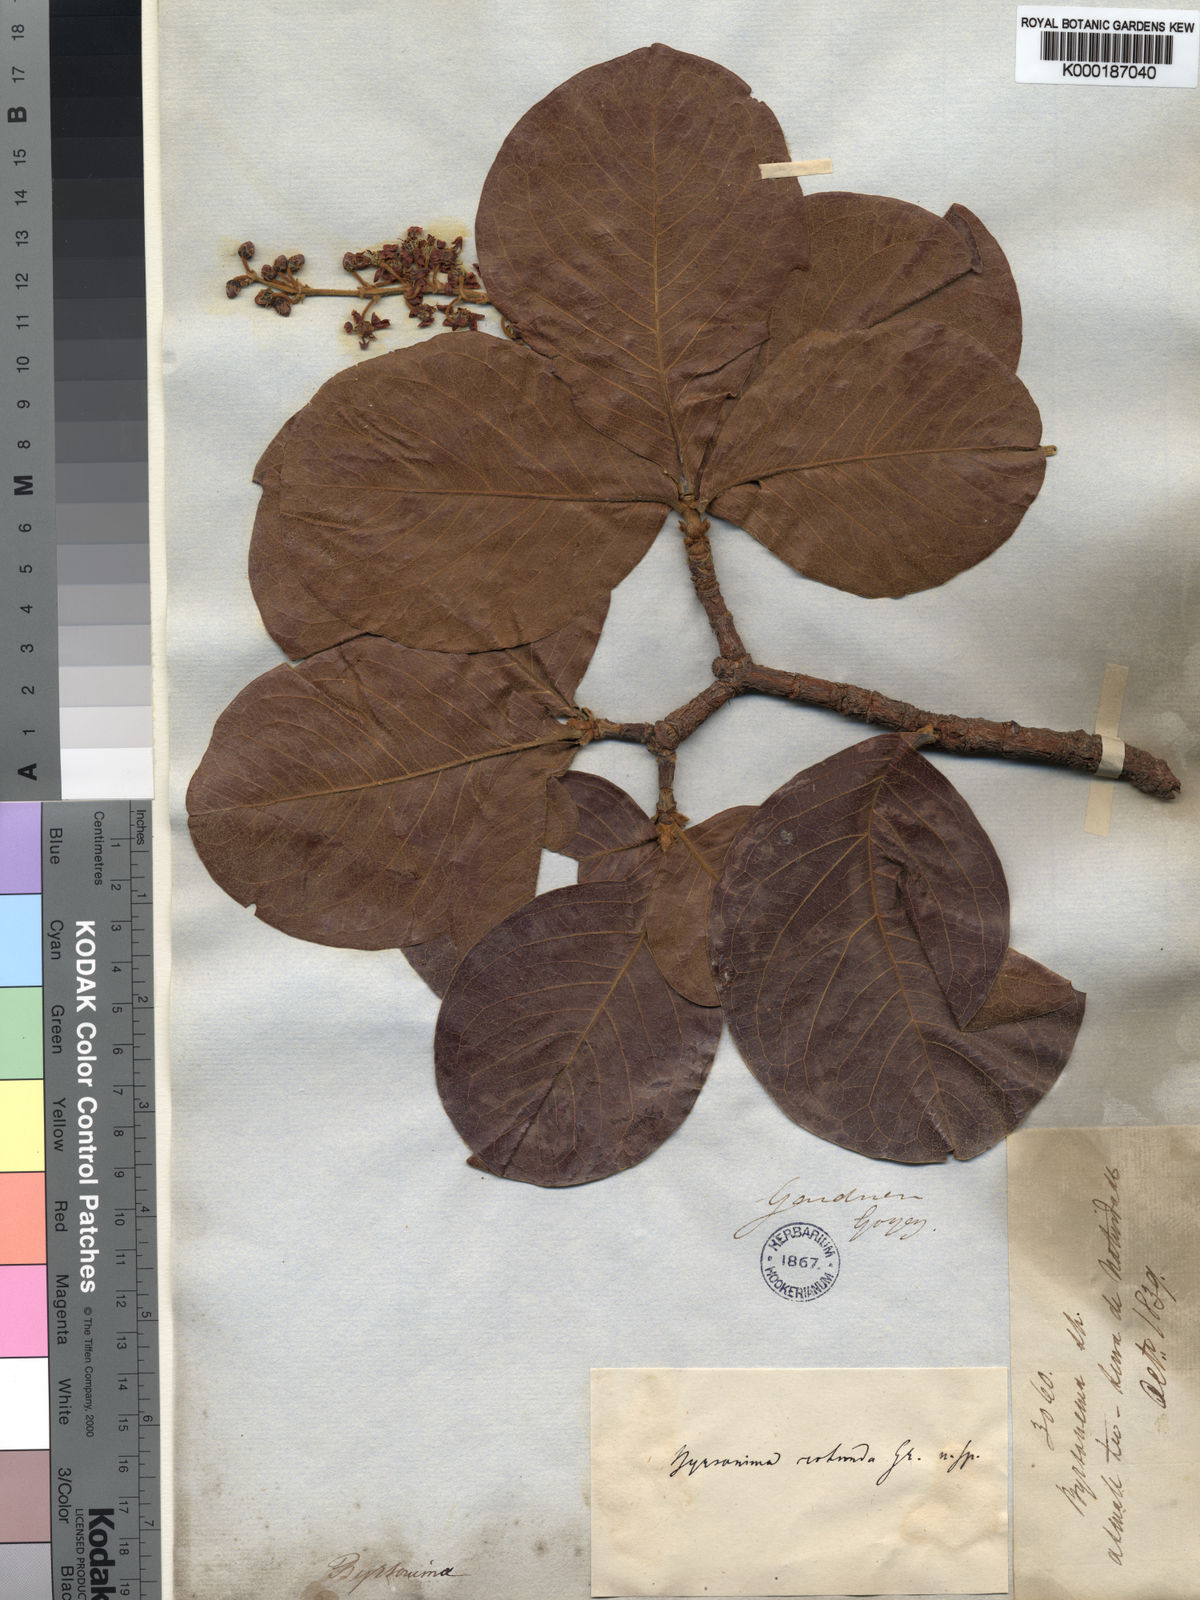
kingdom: Plantae
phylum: Tracheophyta
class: Magnoliopsida
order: Malpighiales
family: Malpighiaceae
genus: Byrsonima
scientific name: Byrsonima rotunda
